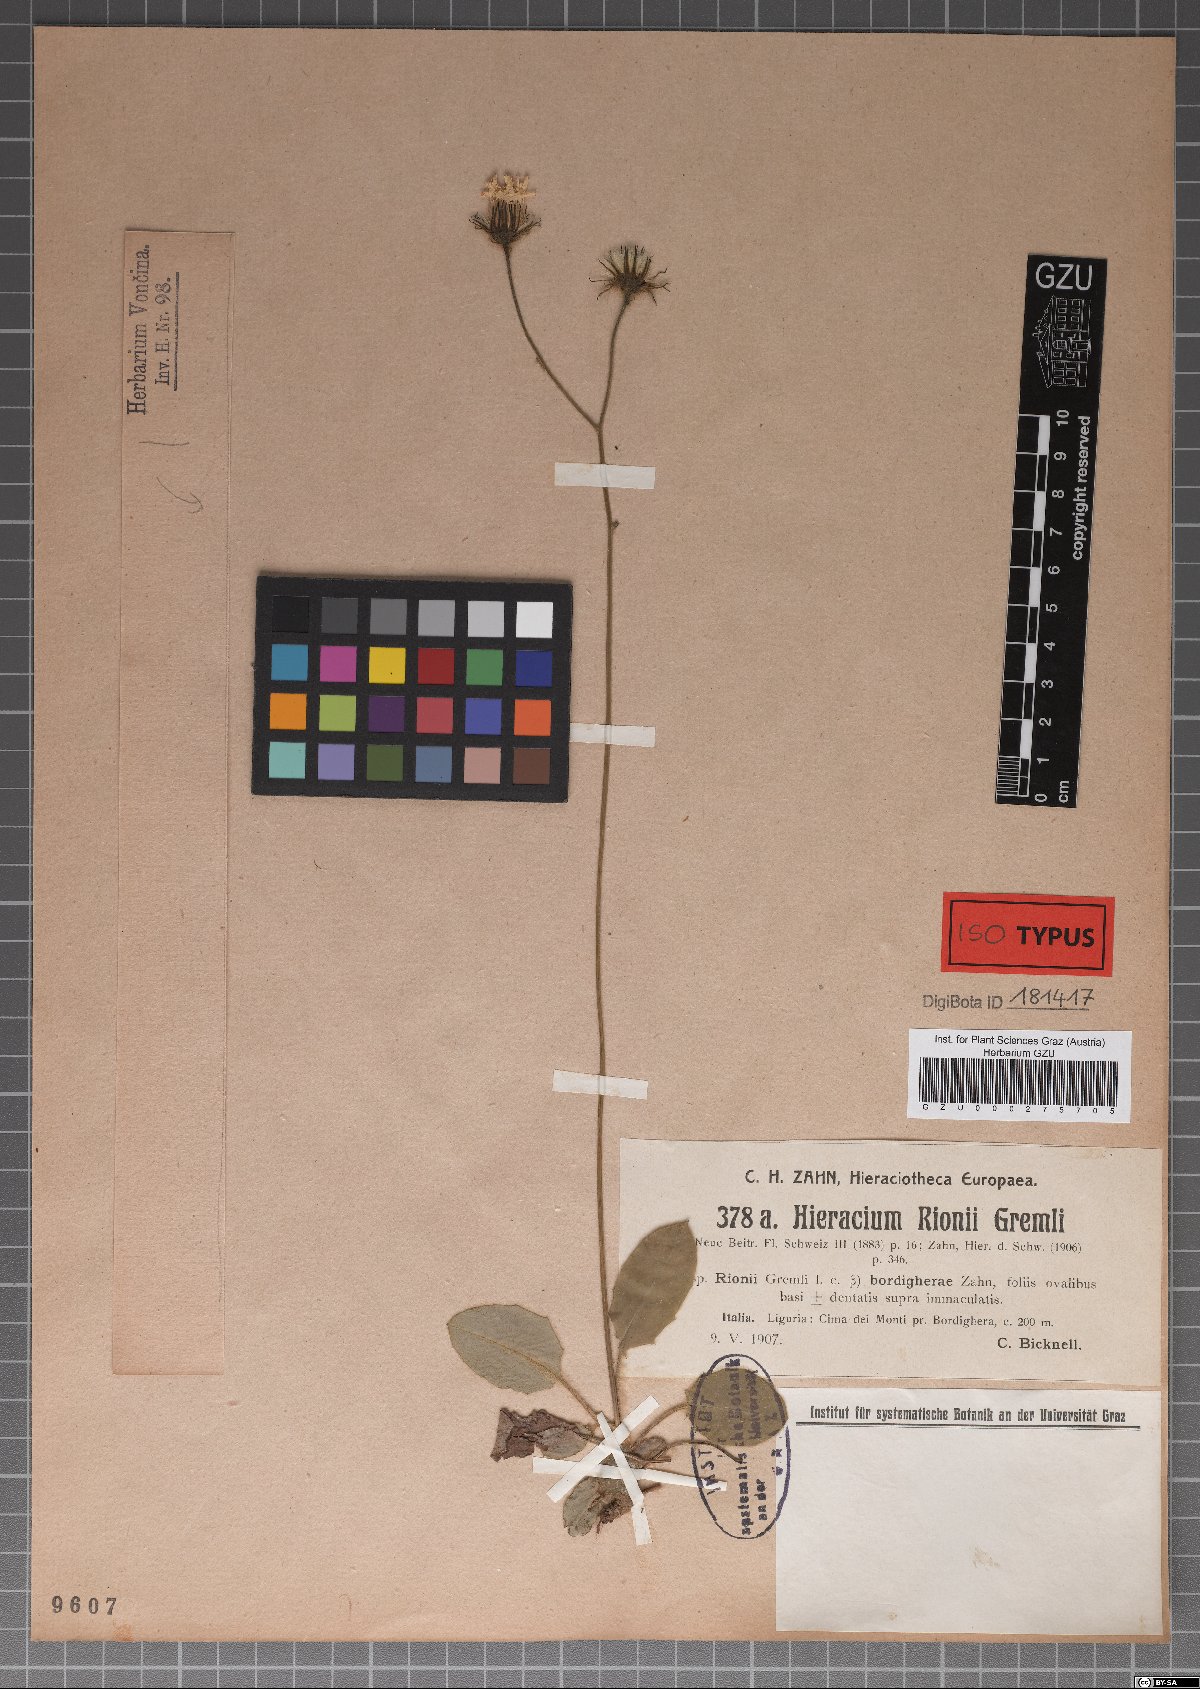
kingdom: Plantae
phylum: Tracheophyta
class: Magnoliopsida
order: Asterales
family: Asteraceae
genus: Hieracium
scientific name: Hieracium caesioides
